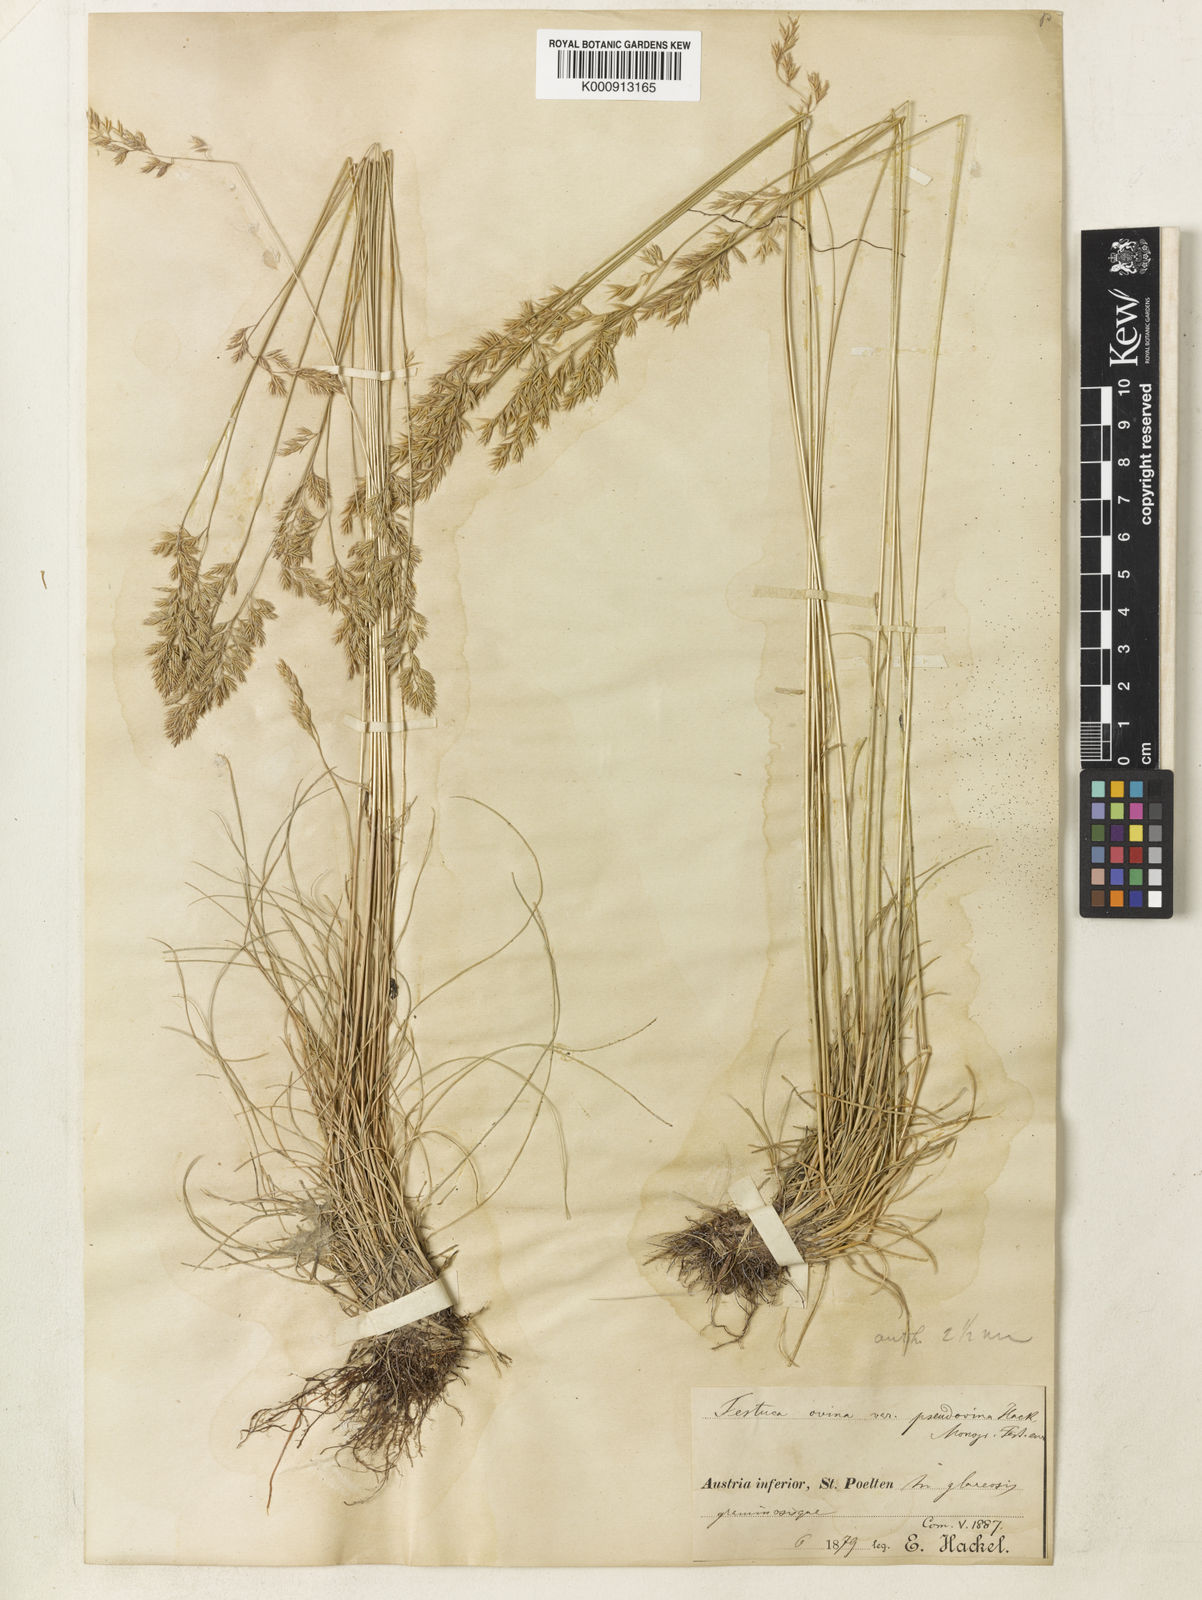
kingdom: Plantae
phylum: Tracheophyta
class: Liliopsida
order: Poales
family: Poaceae
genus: Festuca
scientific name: Festuca pulchra
